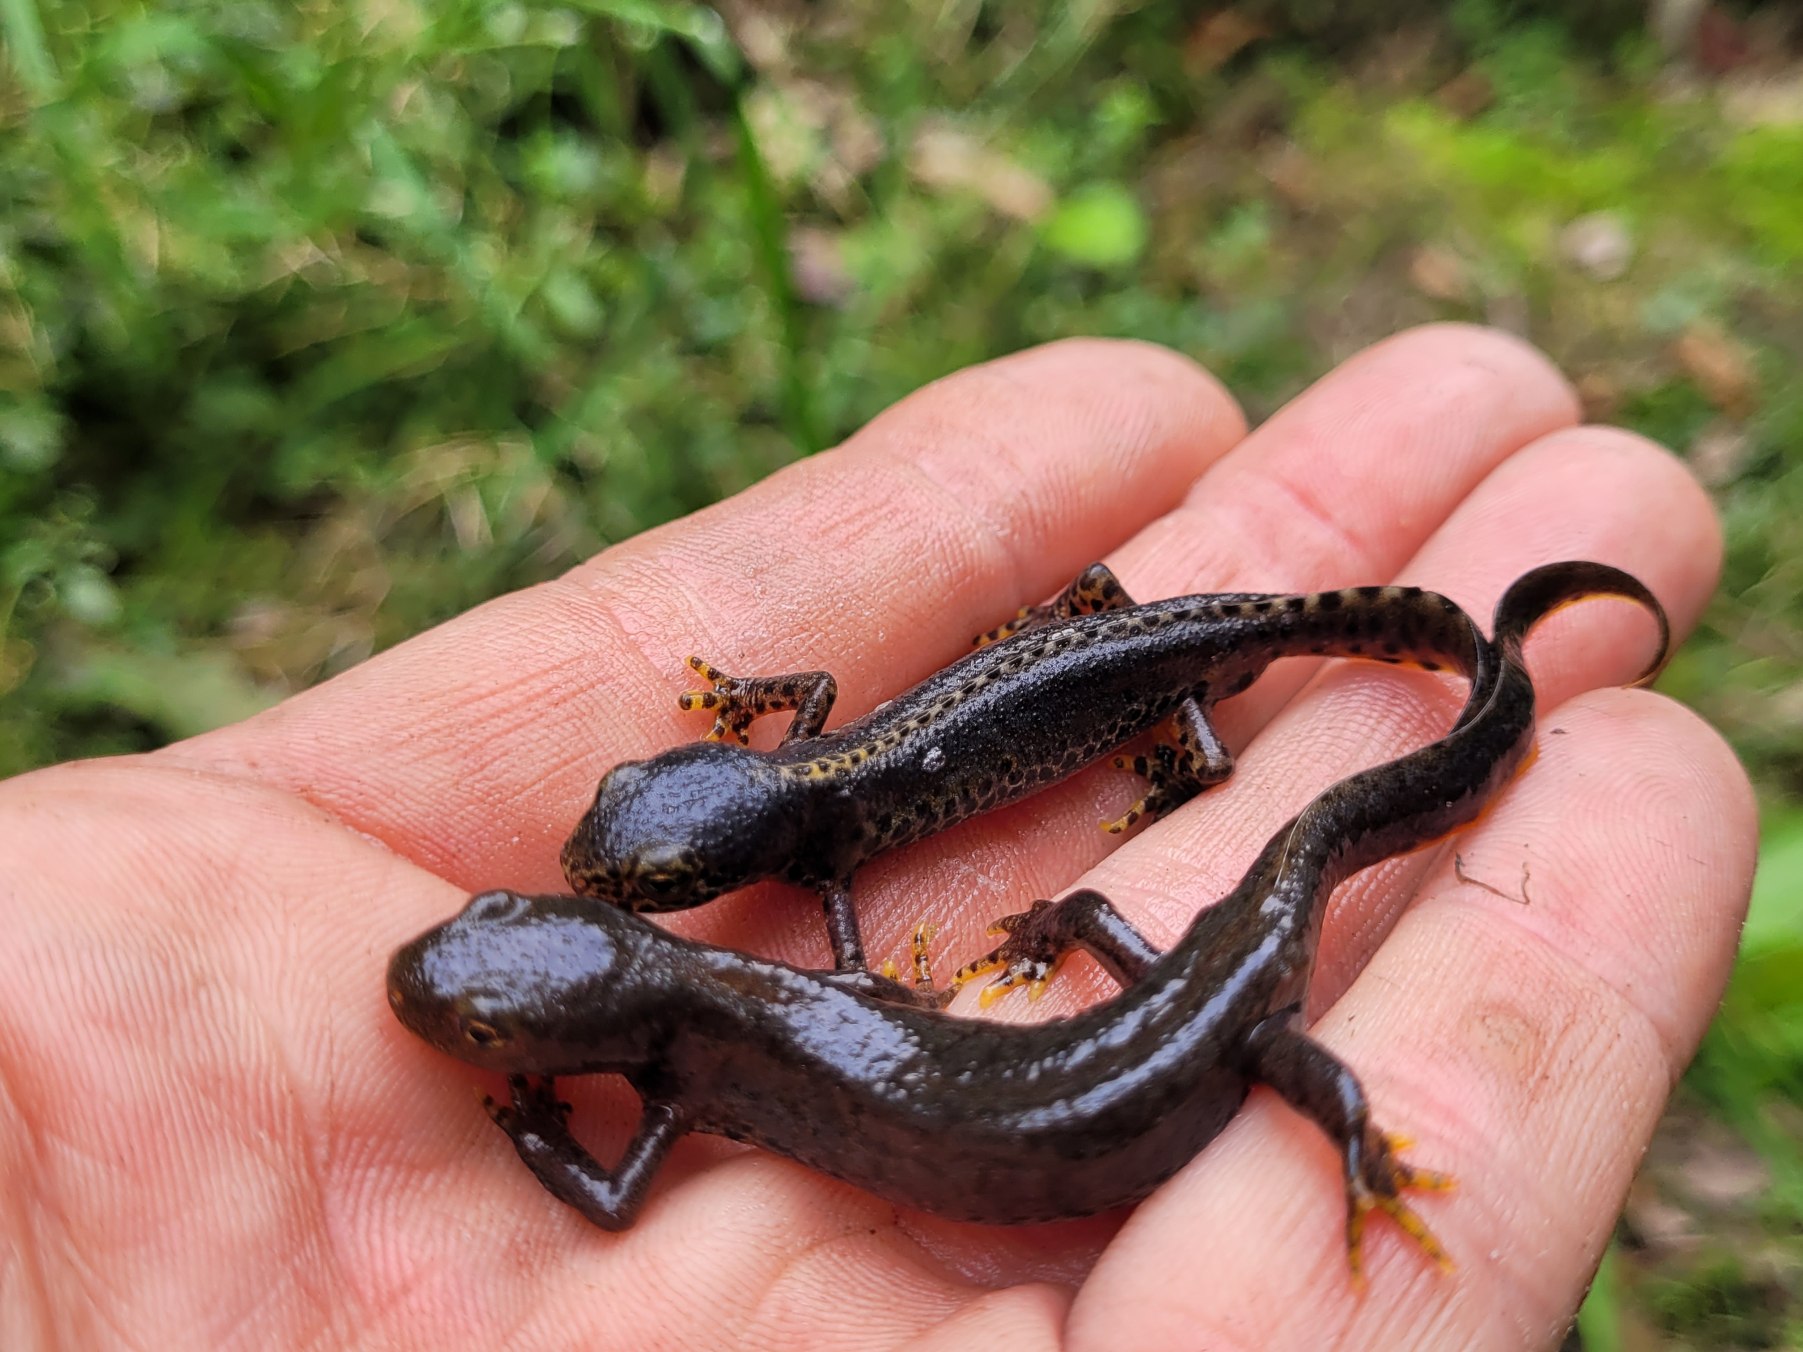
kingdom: Animalia
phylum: Chordata
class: Amphibia
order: Caudata
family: Salamandridae
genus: Ichthyosaura
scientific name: Ichthyosaura alpestris
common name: Bjergsalamander
